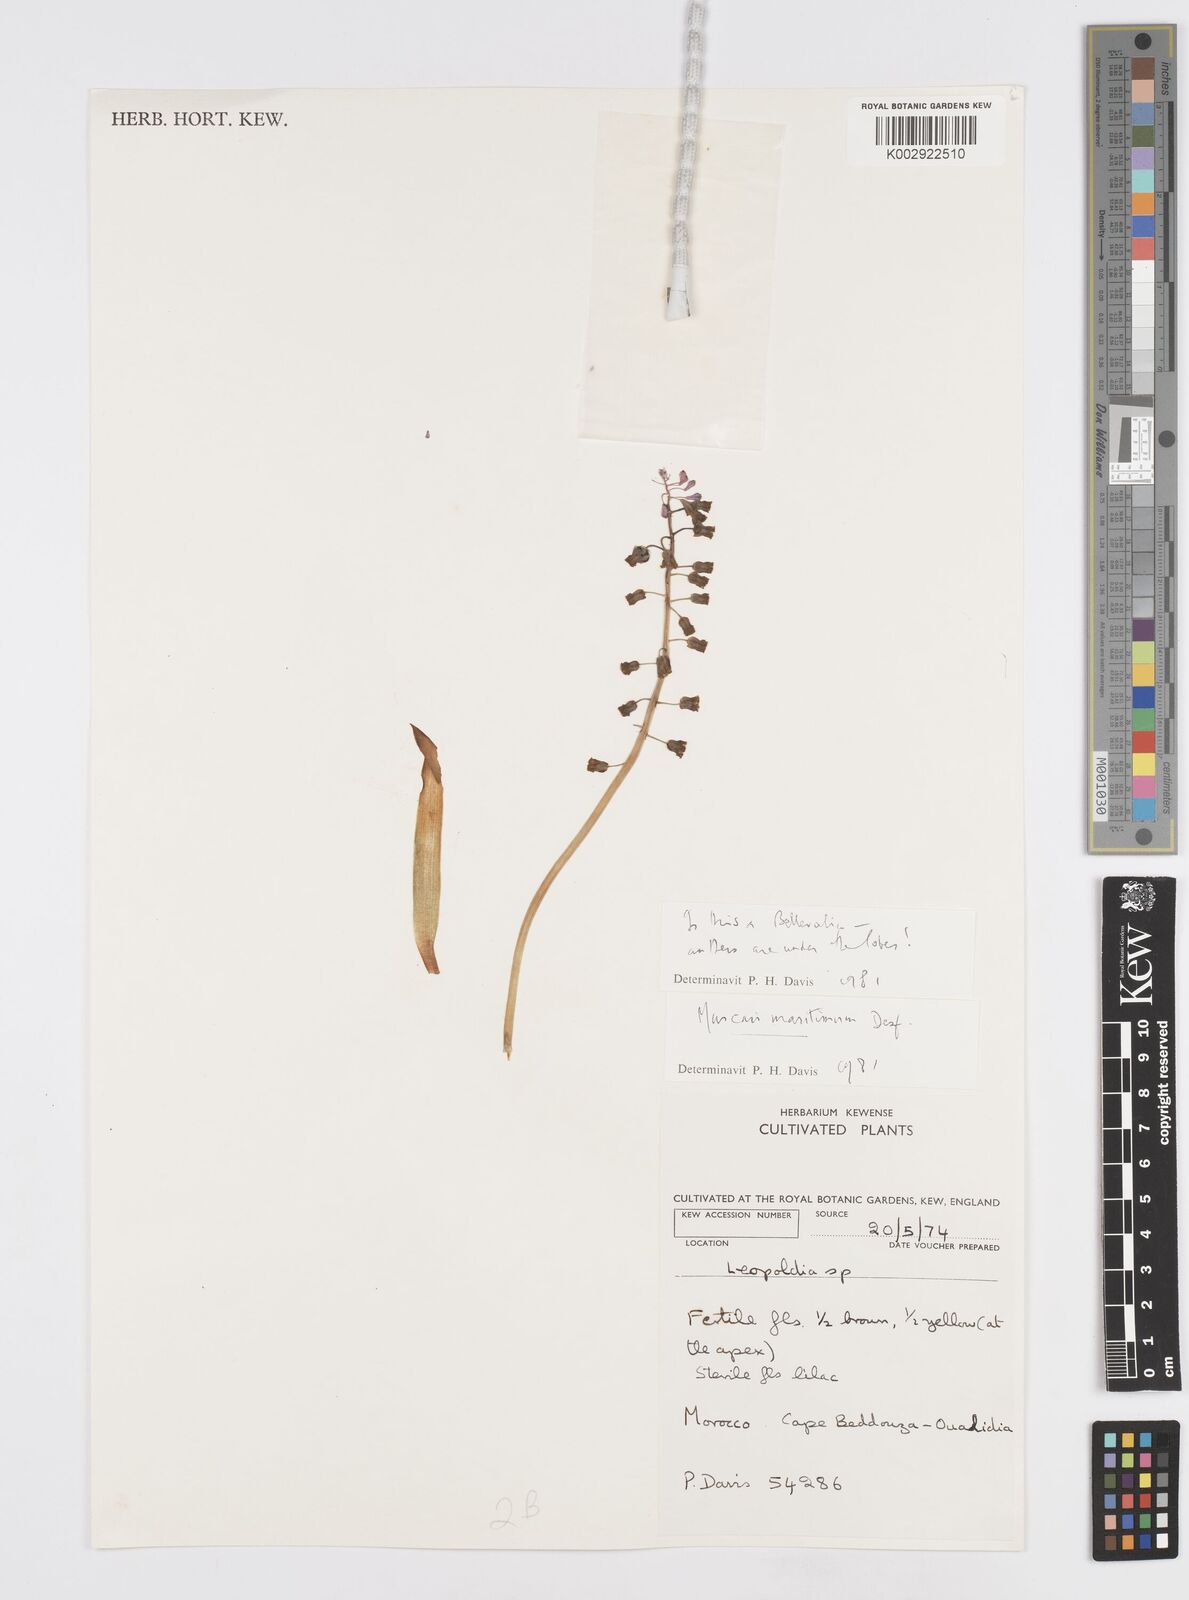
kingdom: Plantae
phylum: Tracheophyta
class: Liliopsida
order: Asparagales
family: Asparagaceae
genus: Muscari
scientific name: Muscari spreitzenhoferi
